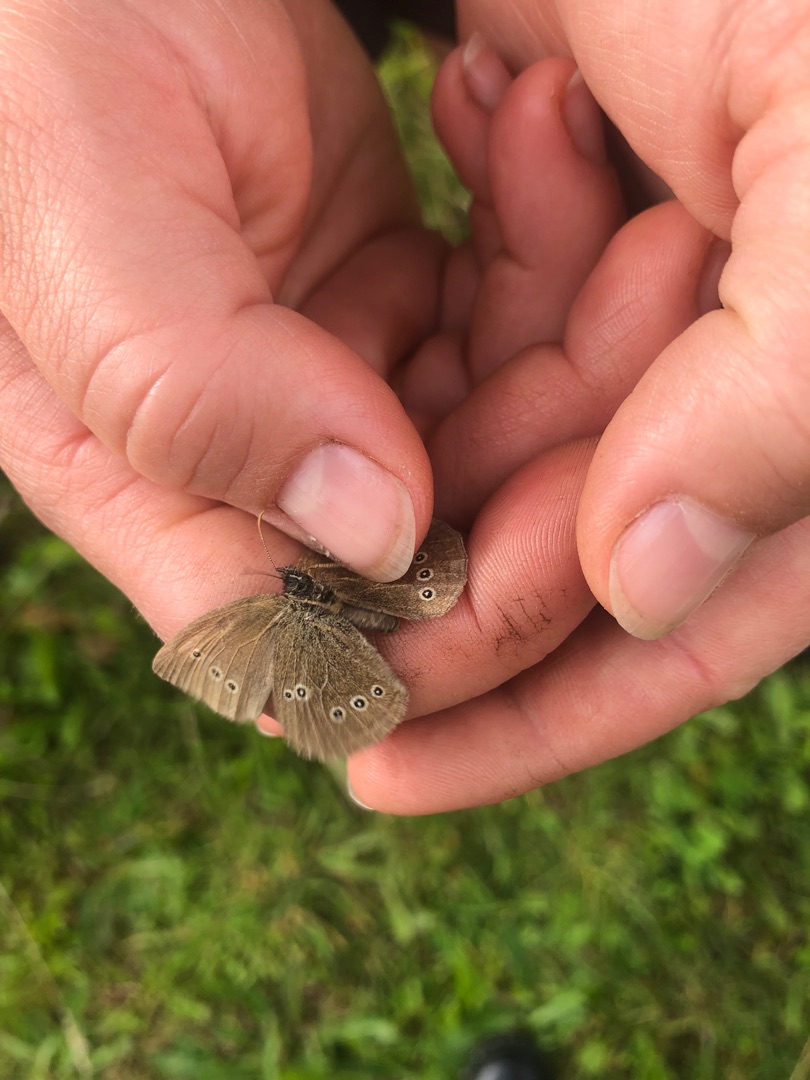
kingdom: Animalia
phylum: Arthropoda
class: Insecta
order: Lepidoptera
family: Nymphalidae
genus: Aphantopus
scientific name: Aphantopus hyperantus
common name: Engrandøje
